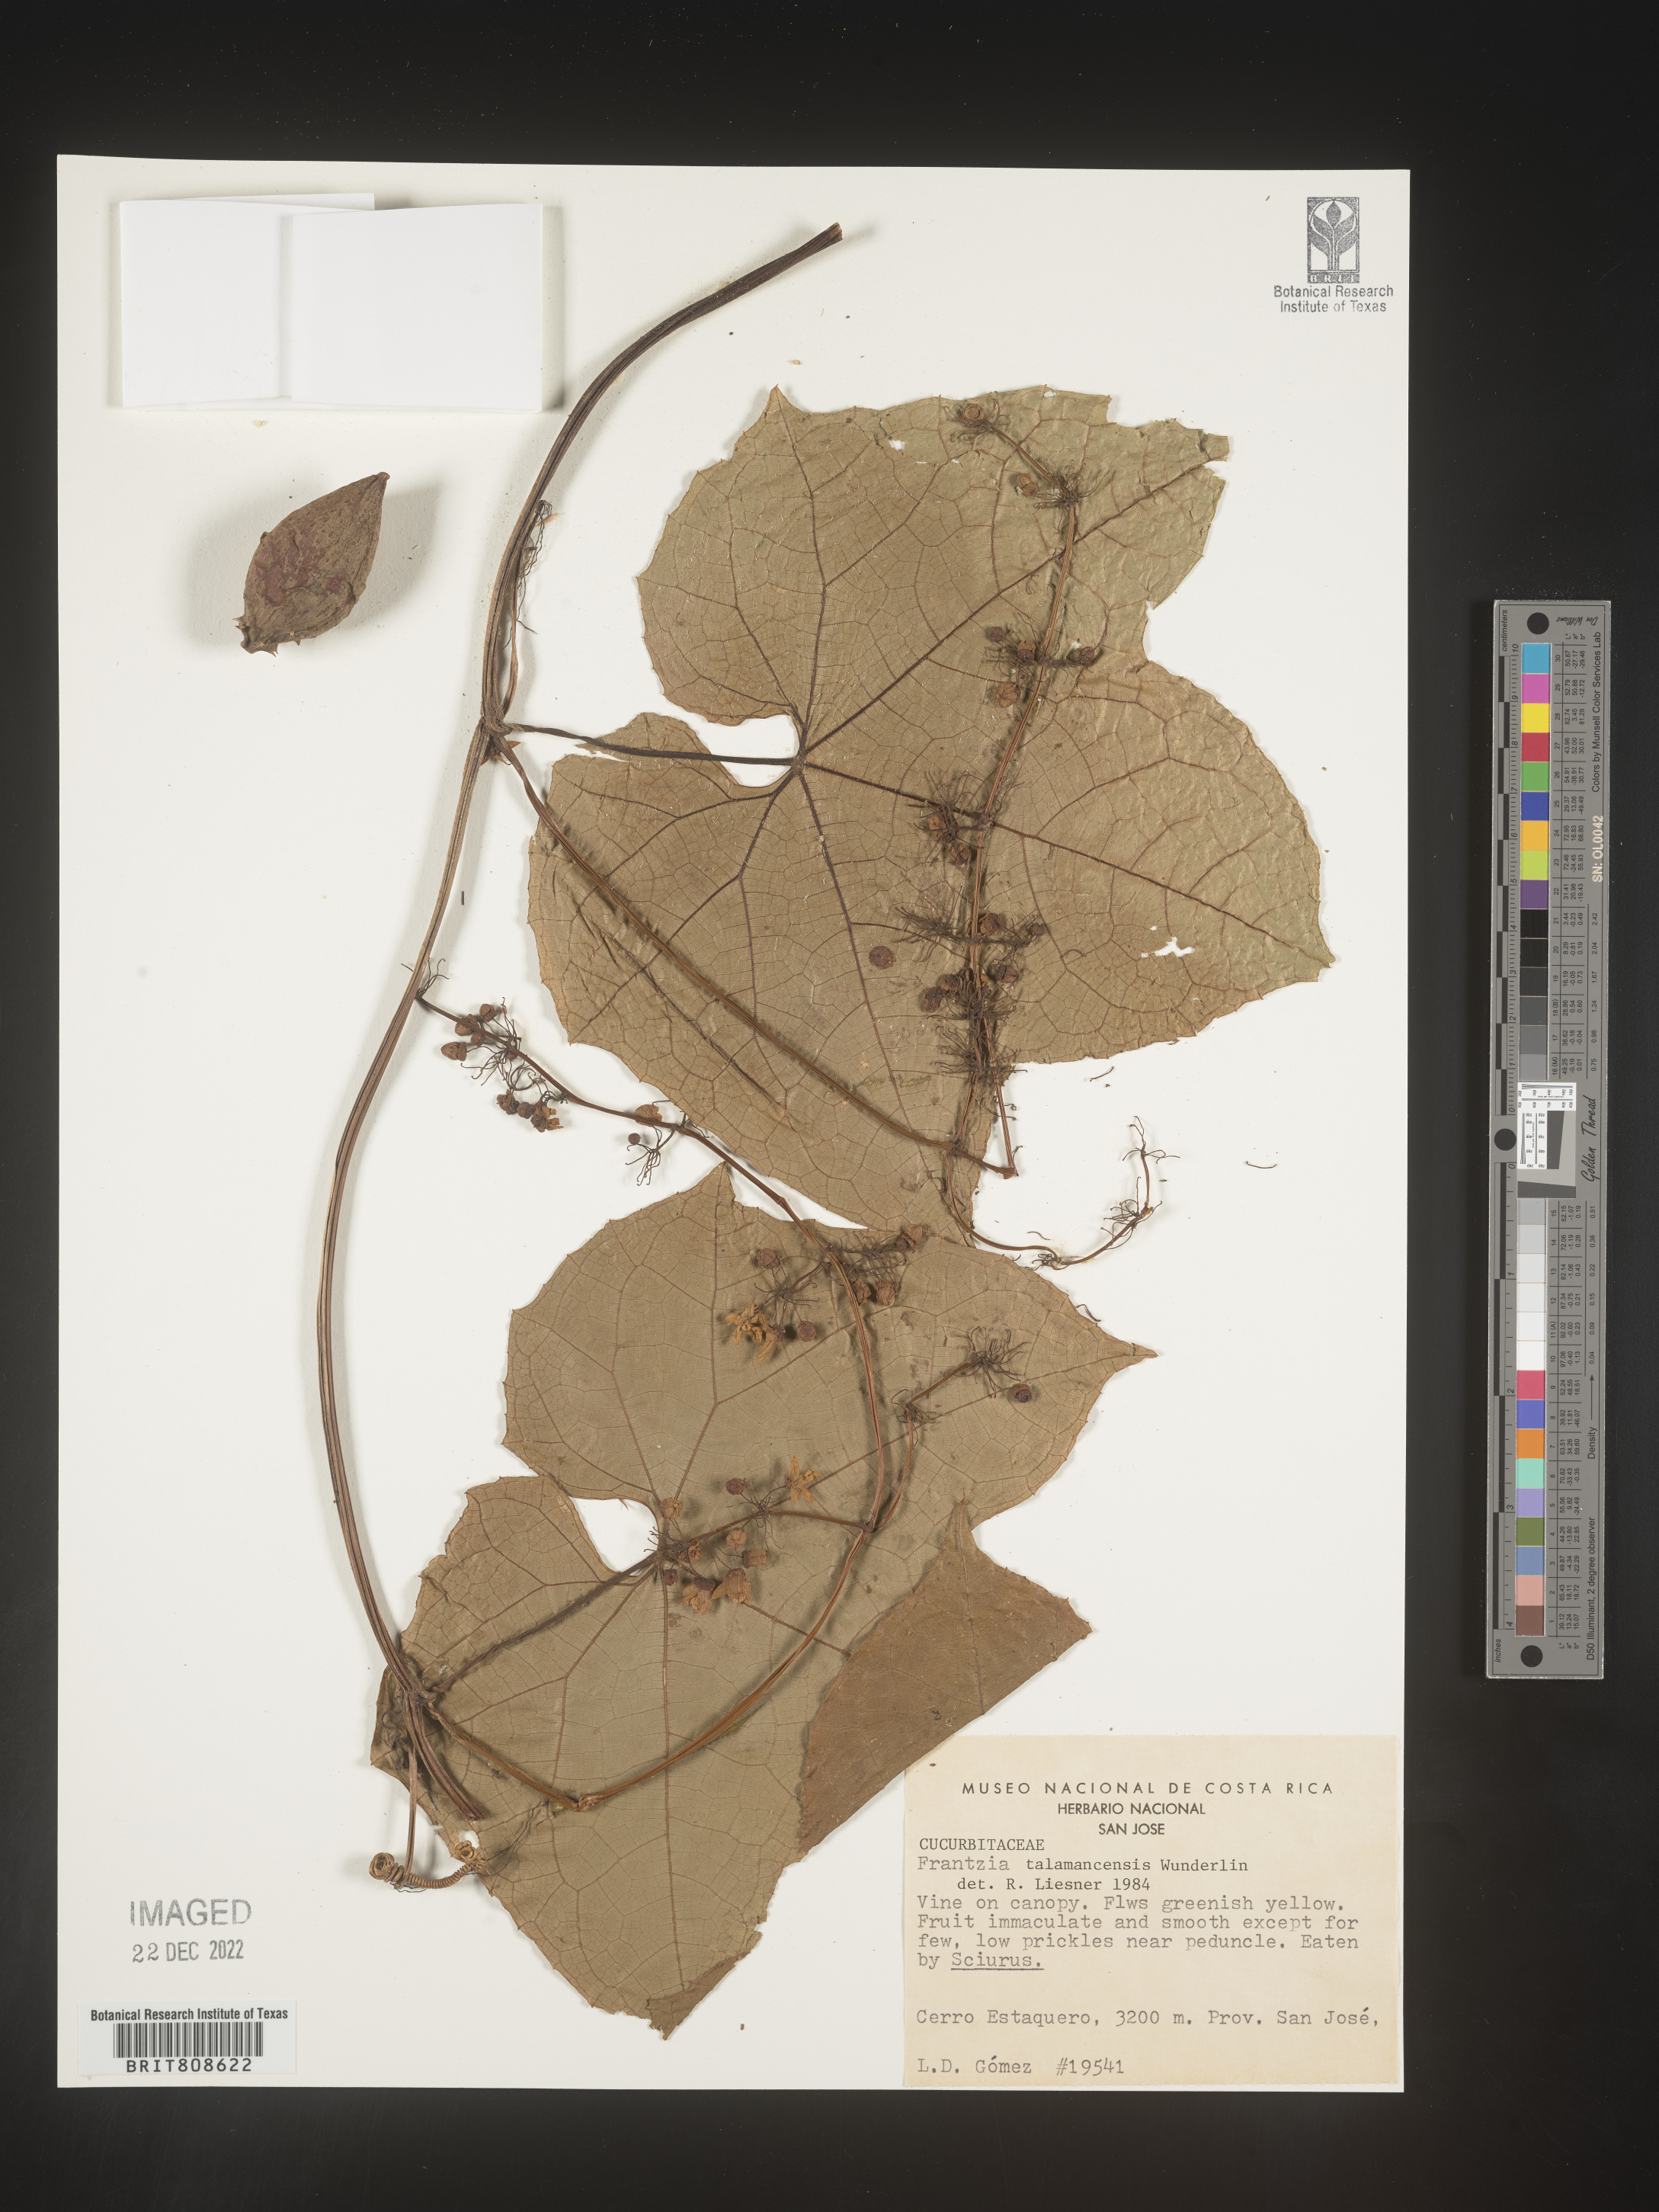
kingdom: Plantae
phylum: Tracheophyta
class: Magnoliopsida
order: Cucurbitales
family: Cucurbitaceae
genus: Frantzia
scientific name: Frantzia
